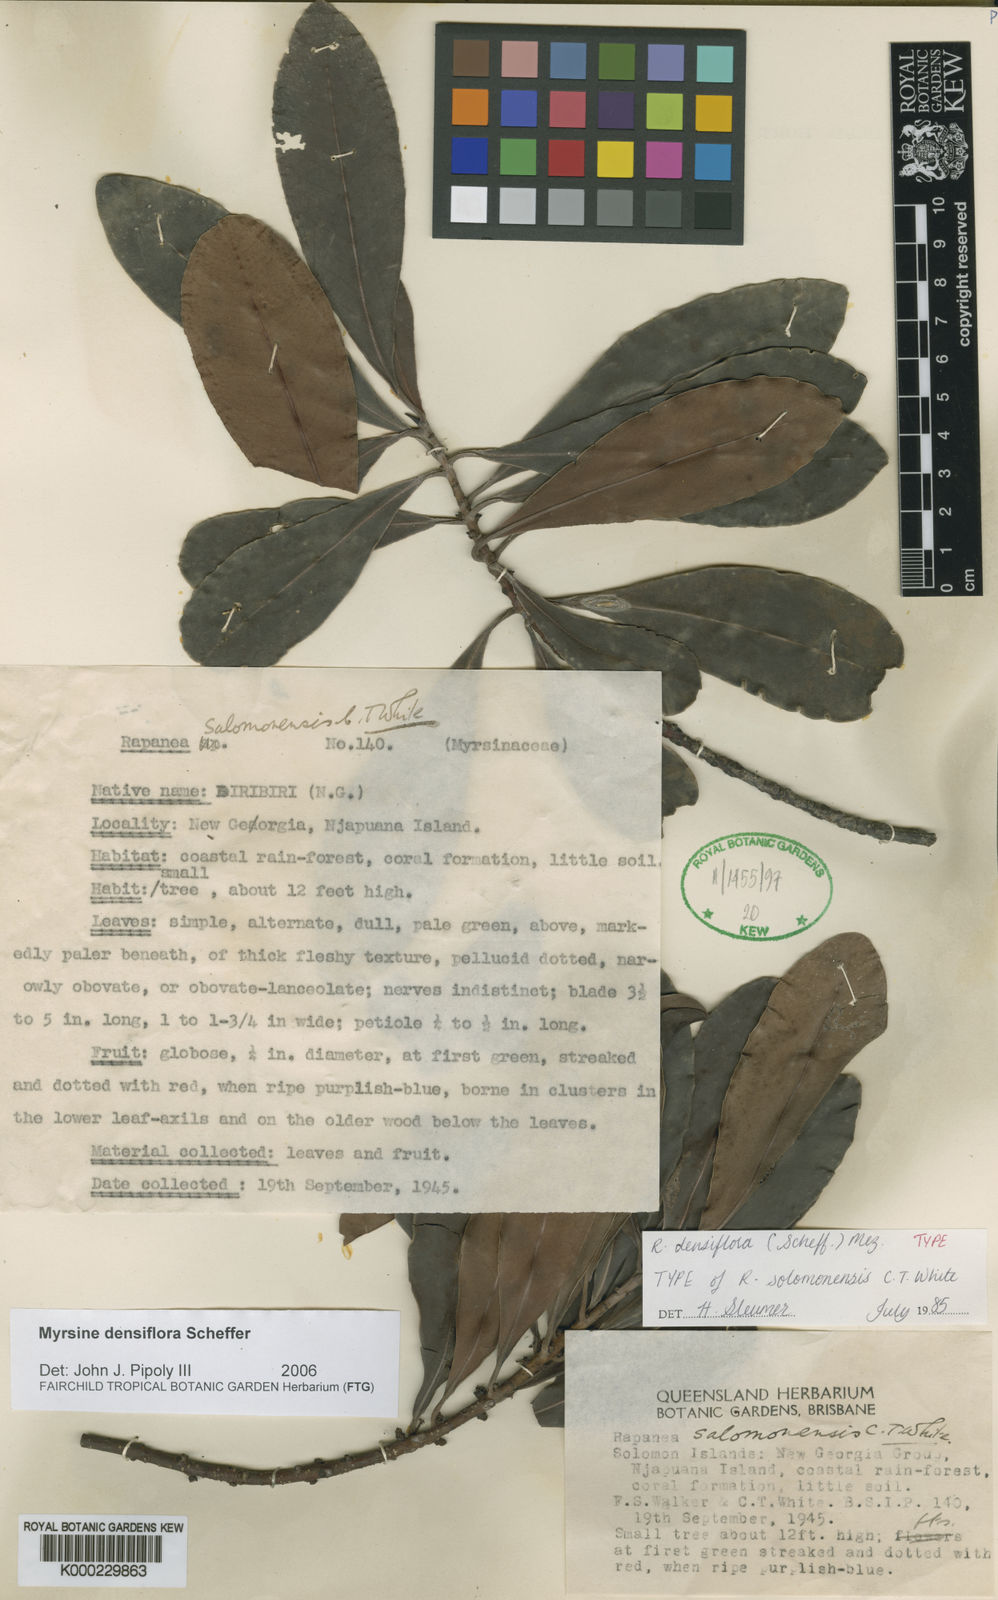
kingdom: Plantae
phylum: Tracheophyta
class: Magnoliopsida
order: Ericales
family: Primulaceae
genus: Myrsine
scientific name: Myrsine densiflora
